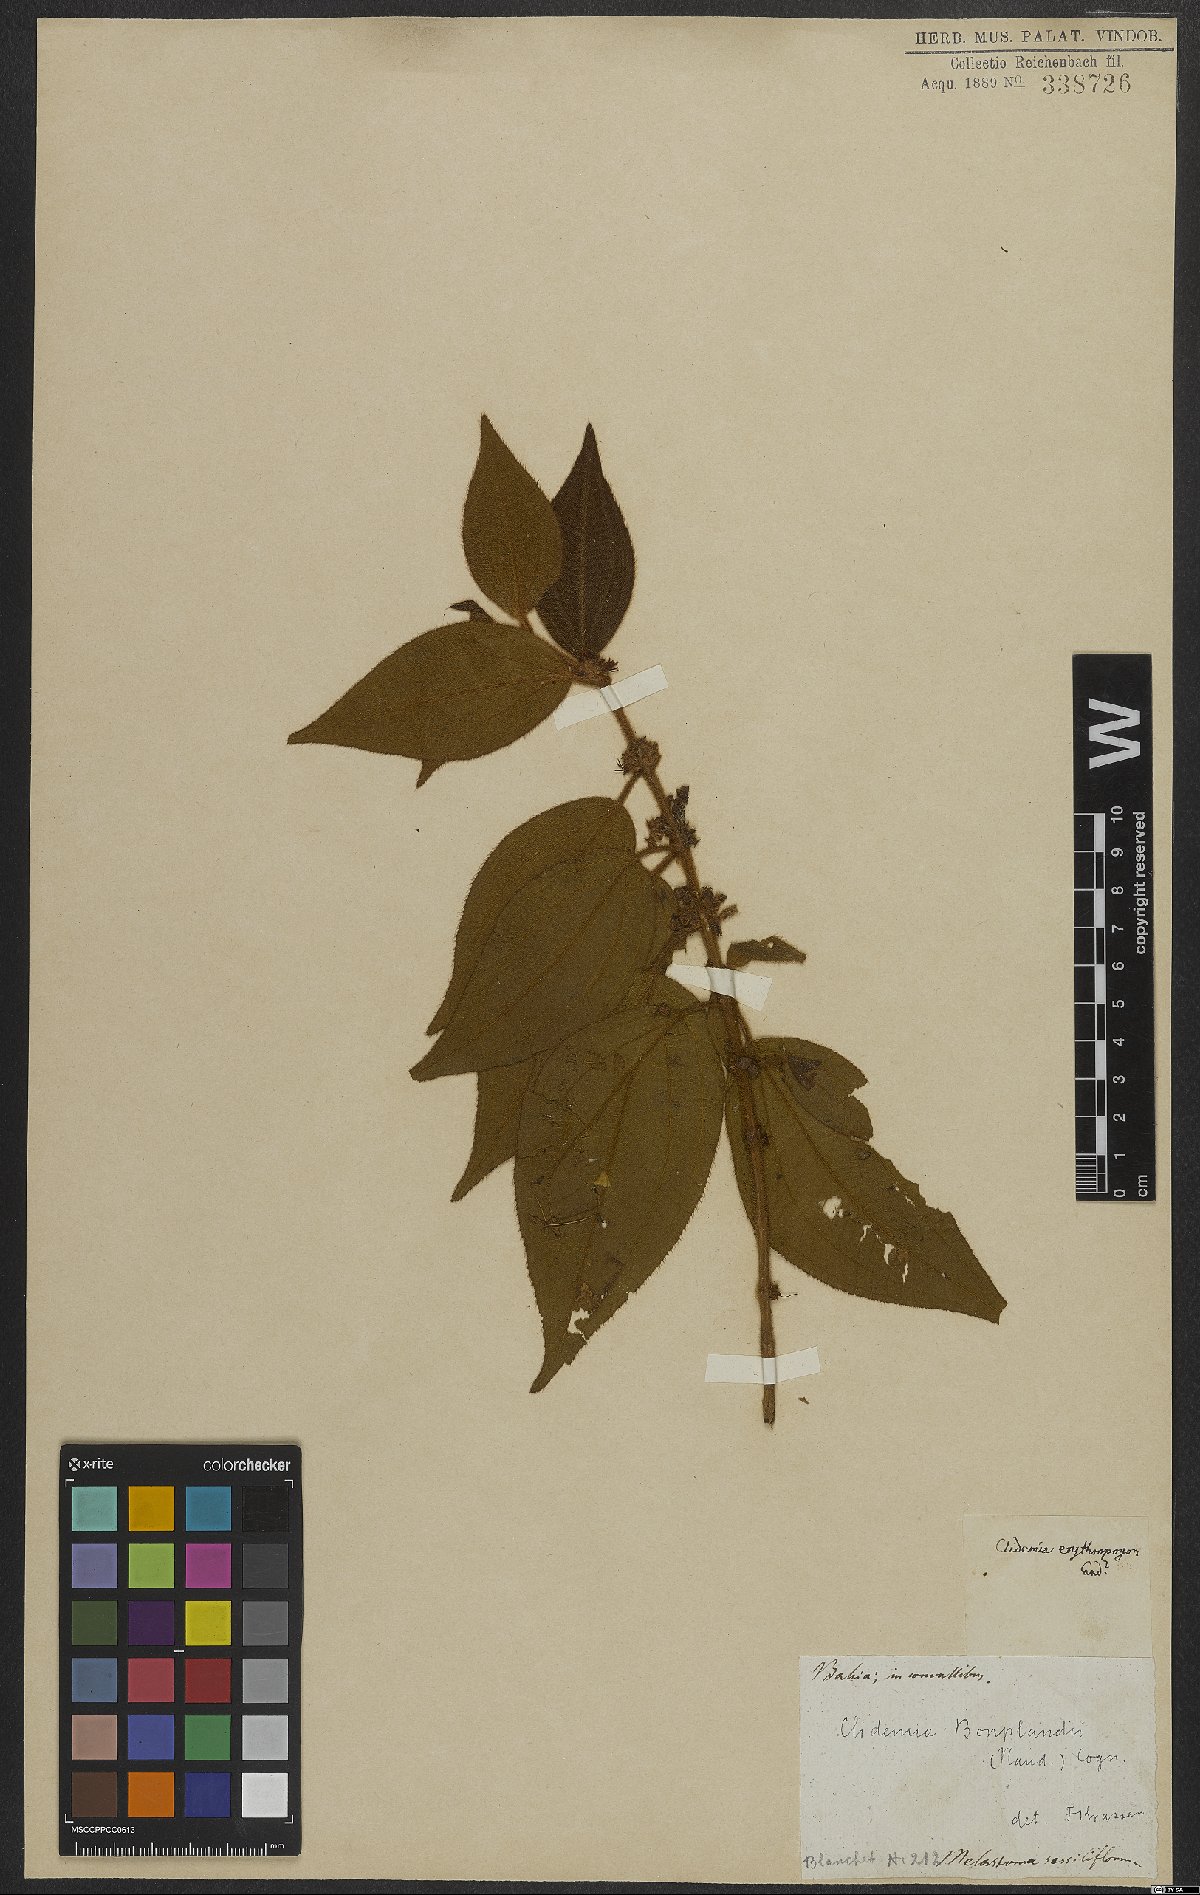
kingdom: Plantae
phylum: Tracheophyta
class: Magnoliopsida
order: Myrtales
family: Melastomataceae
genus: Miconia
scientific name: Miconia debilis
